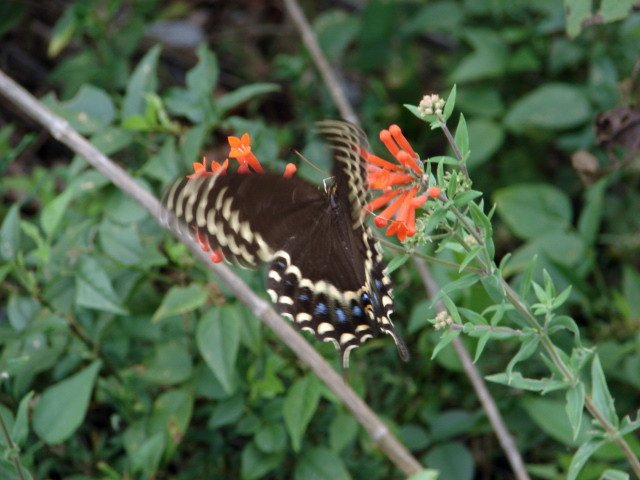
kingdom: Animalia
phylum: Arthropoda
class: Insecta
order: Lepidoptera
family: Papilionidae
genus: Pterourus
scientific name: Pterourus palamedes
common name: Palamedes Swallowtail
